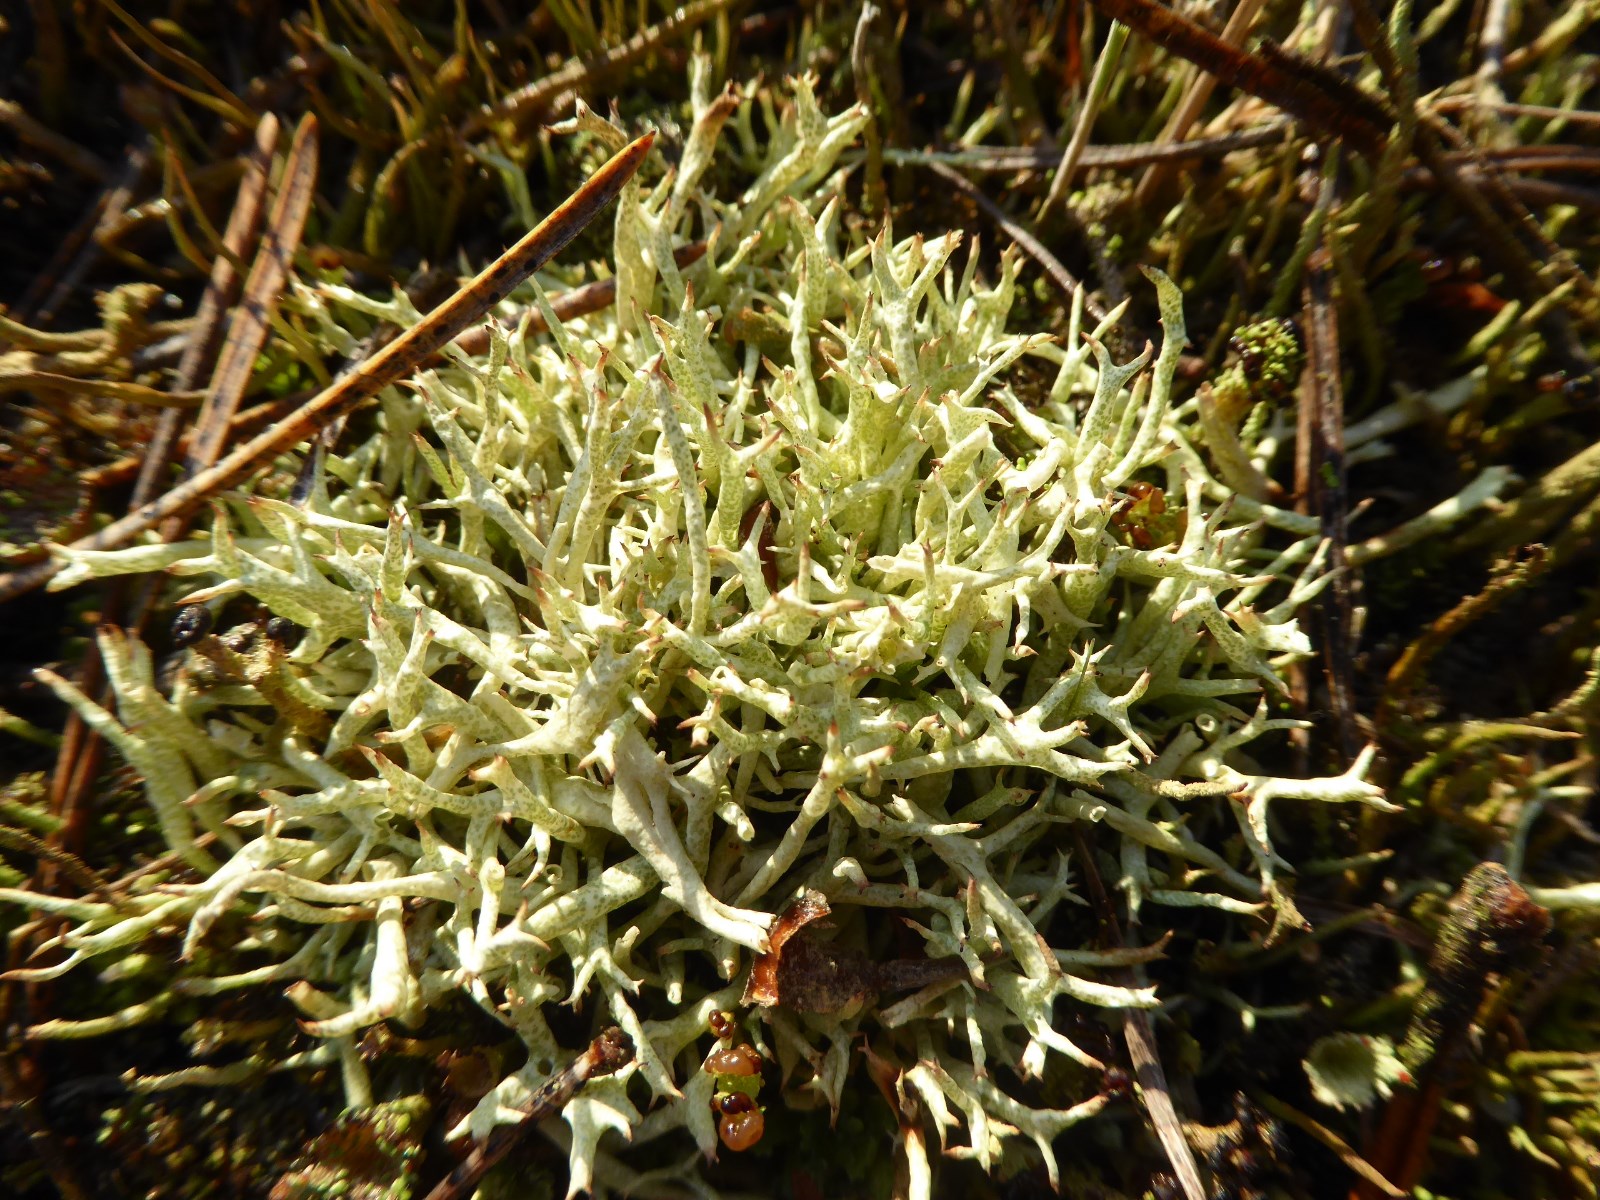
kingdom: Fungi
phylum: Ascomycota
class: Lecanoromycetes
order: Lecanorales
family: Cladoniaceae
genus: Cladonia
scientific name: Cladonia uncialis
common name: pigget bægerlav
